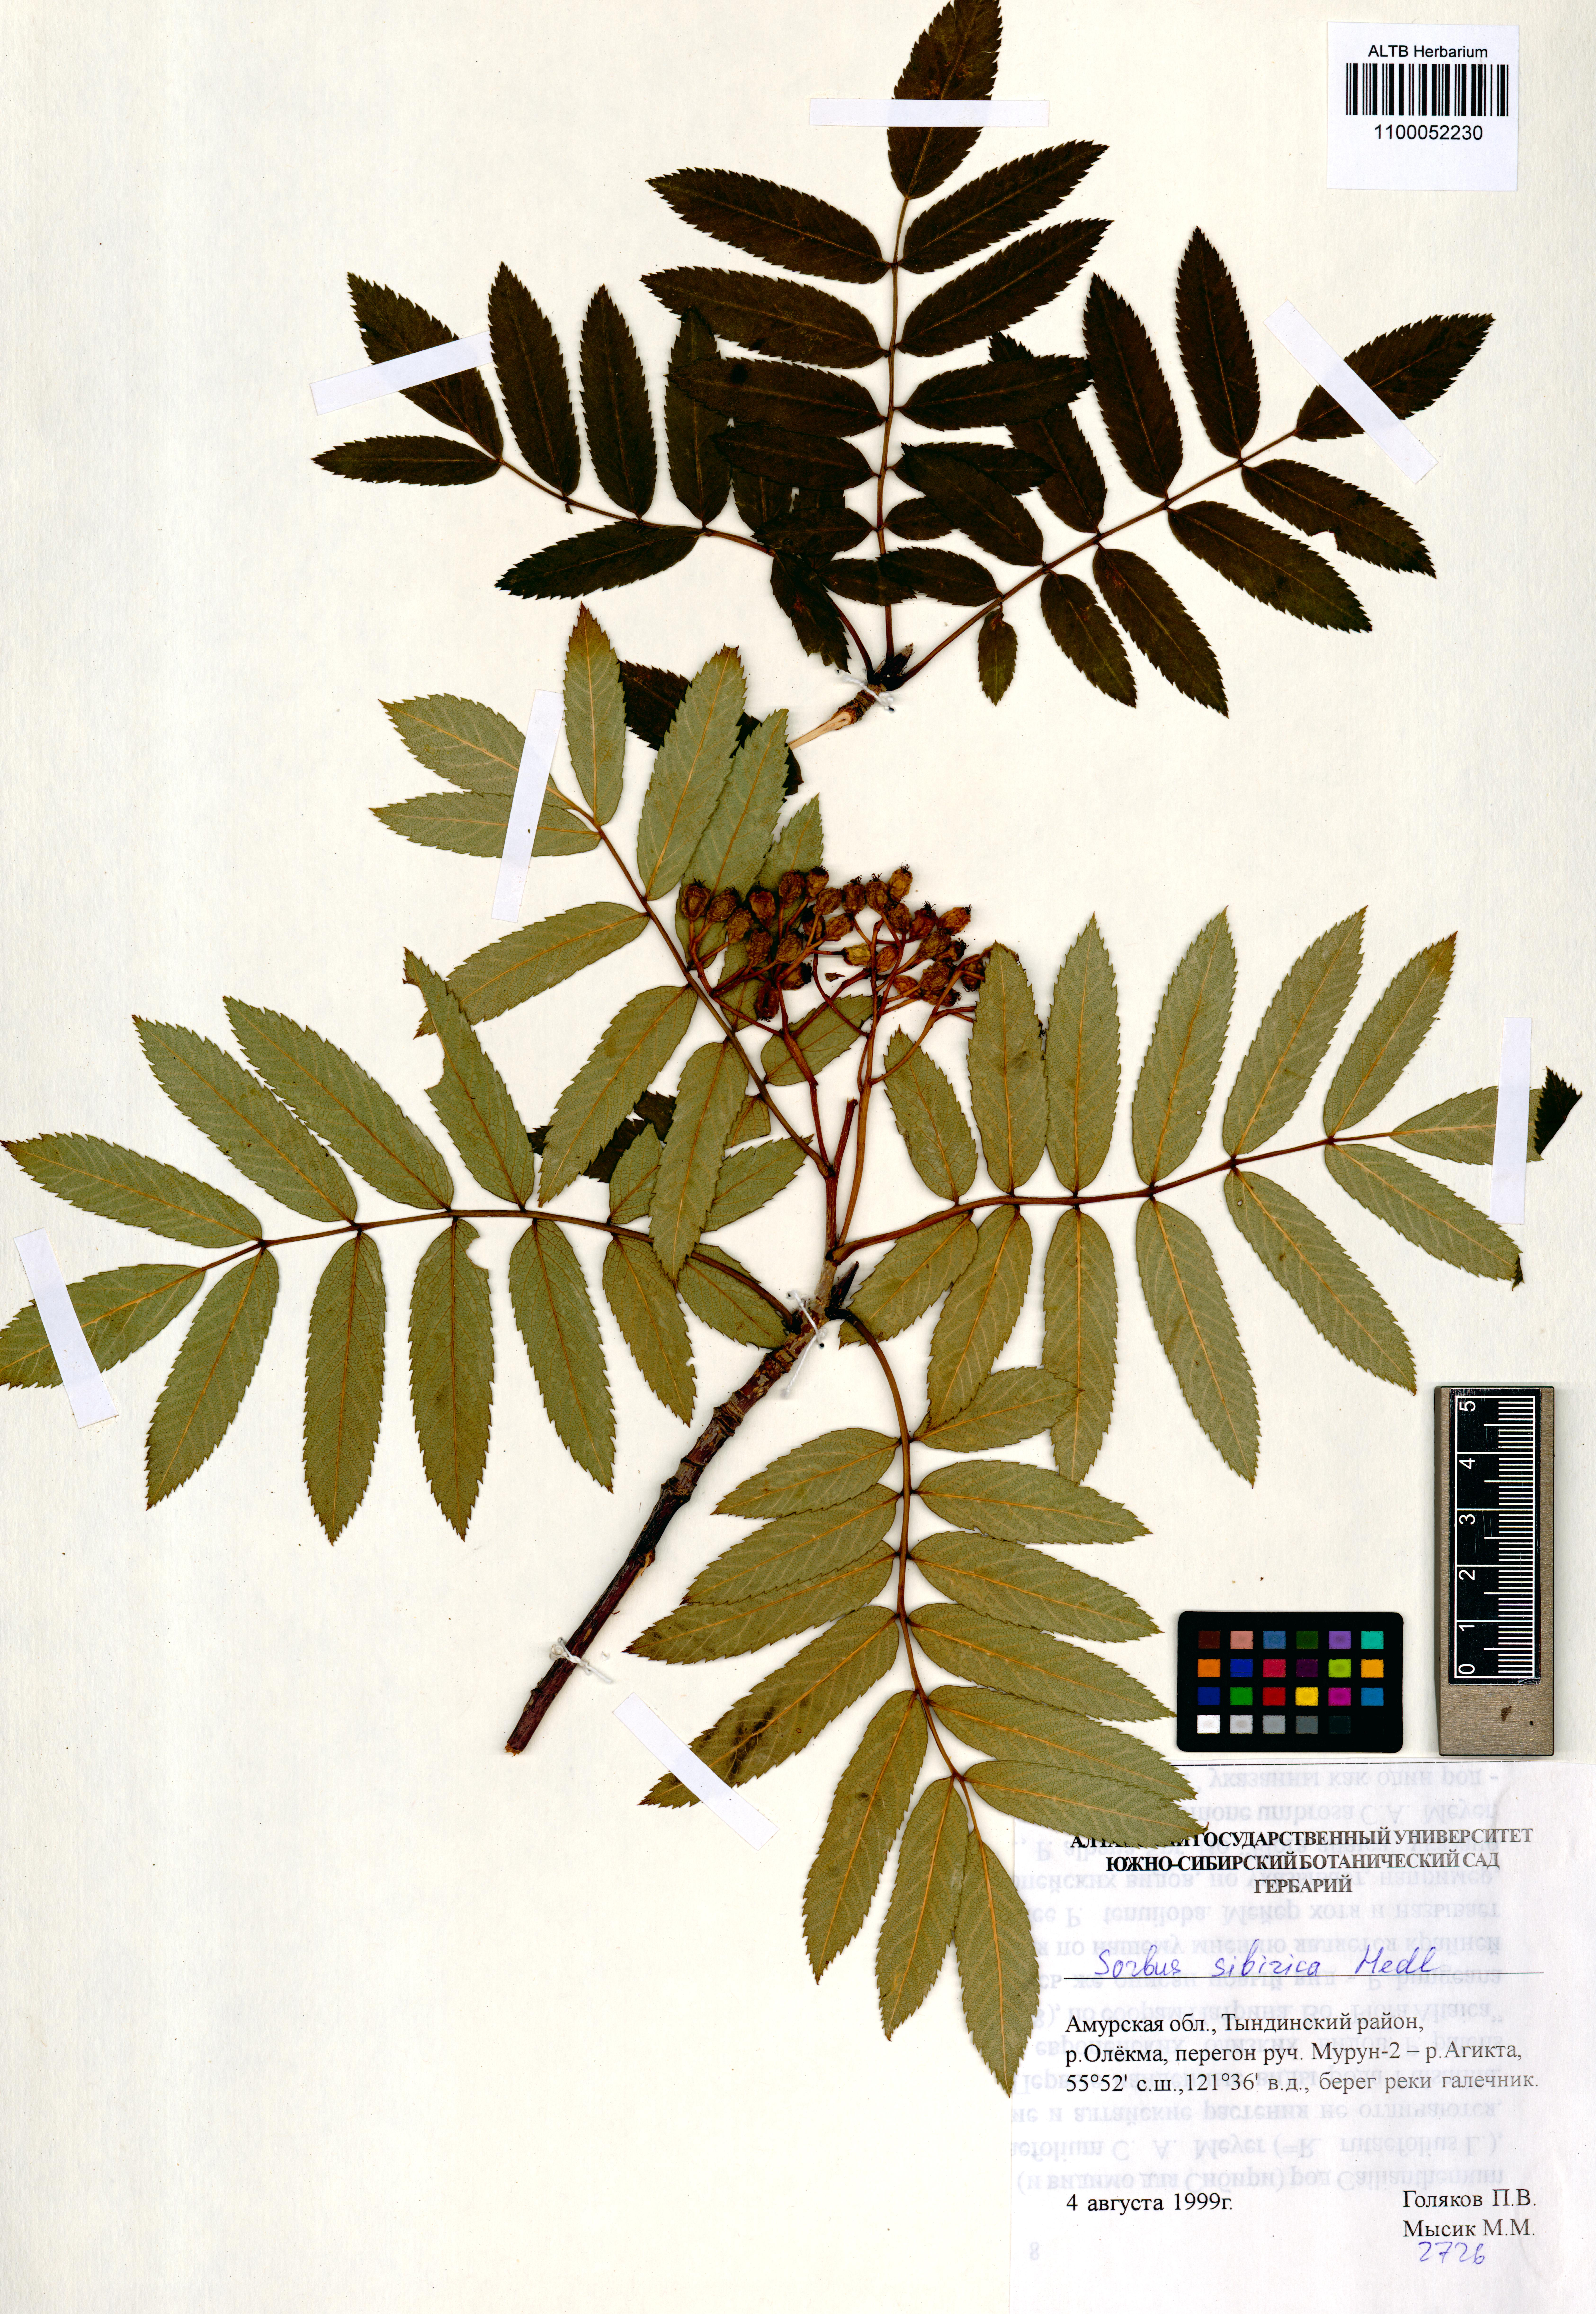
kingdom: Plantae
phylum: Tracheophyta
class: Magnoliopsida
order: Rosales
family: Rosaceae
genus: Sorbus
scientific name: Sorbus aucuparia
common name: Rowan
